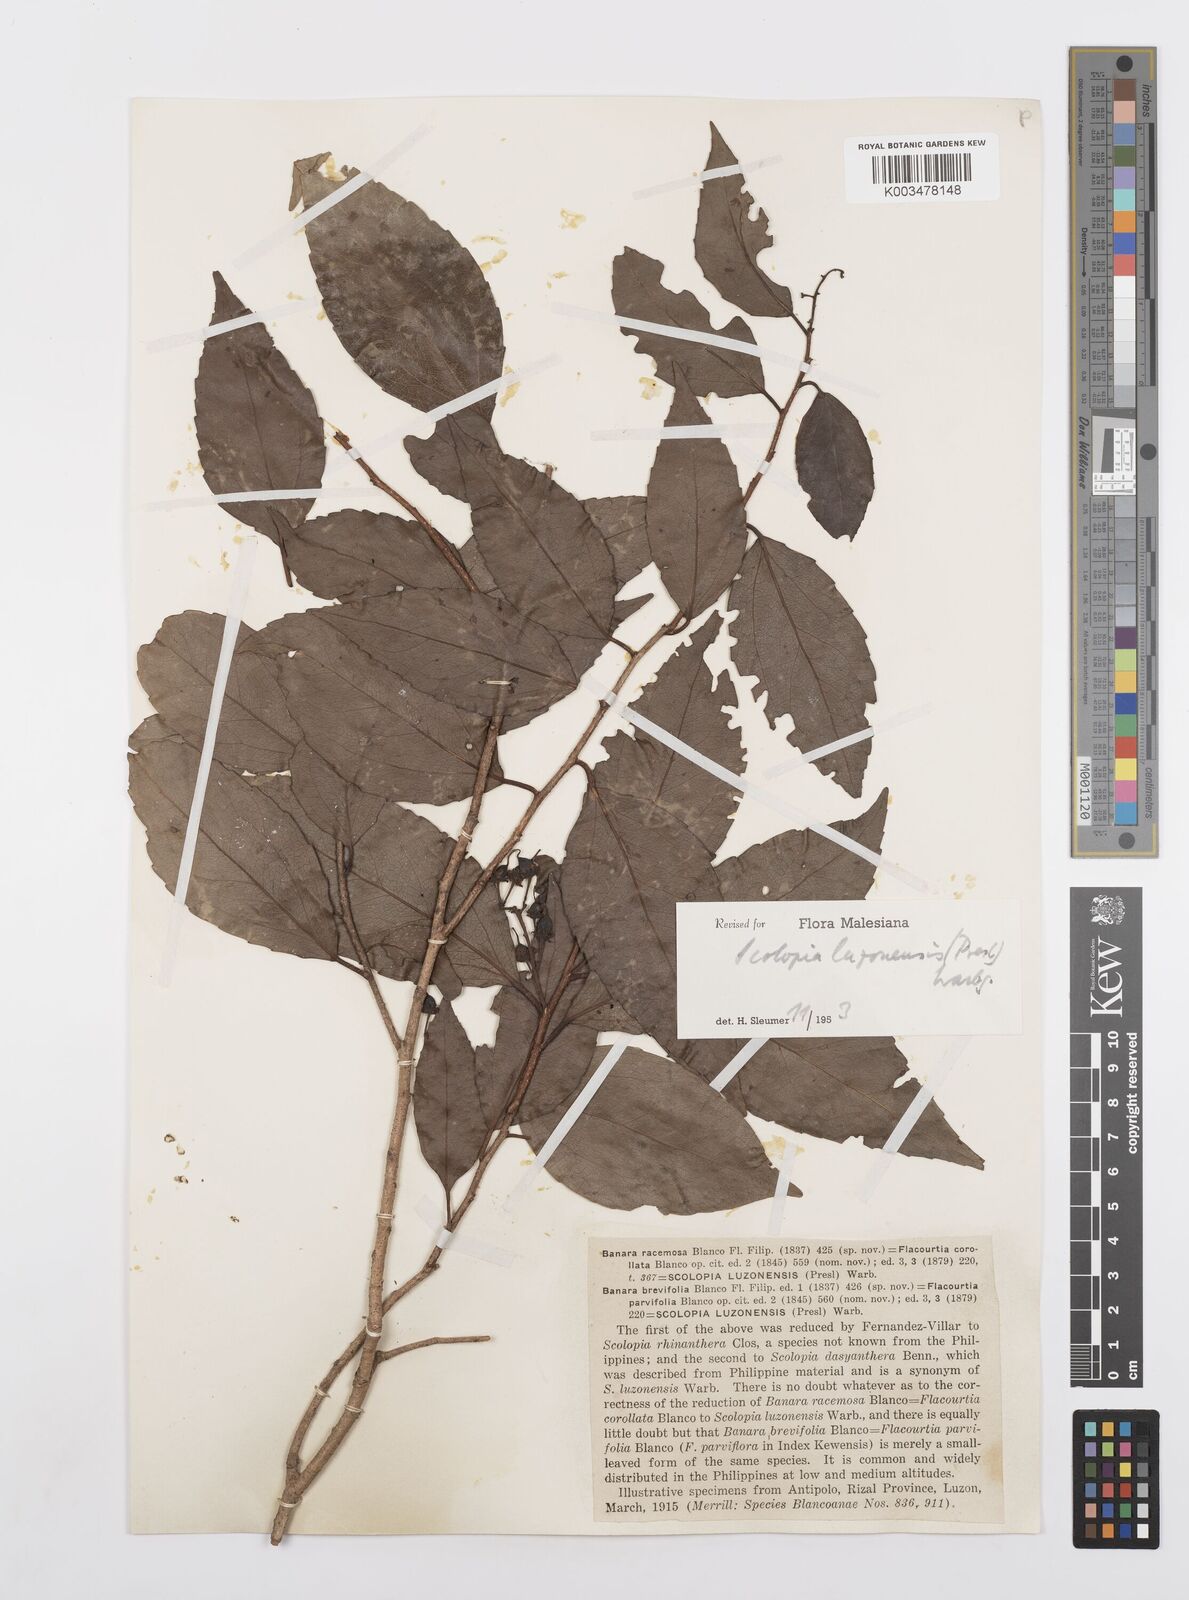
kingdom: Plantae
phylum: Tracheophyta
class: Magnoliopsida
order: Malpighiales
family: Salicaceae
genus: Scolopia
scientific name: Scolopia luzonensis
